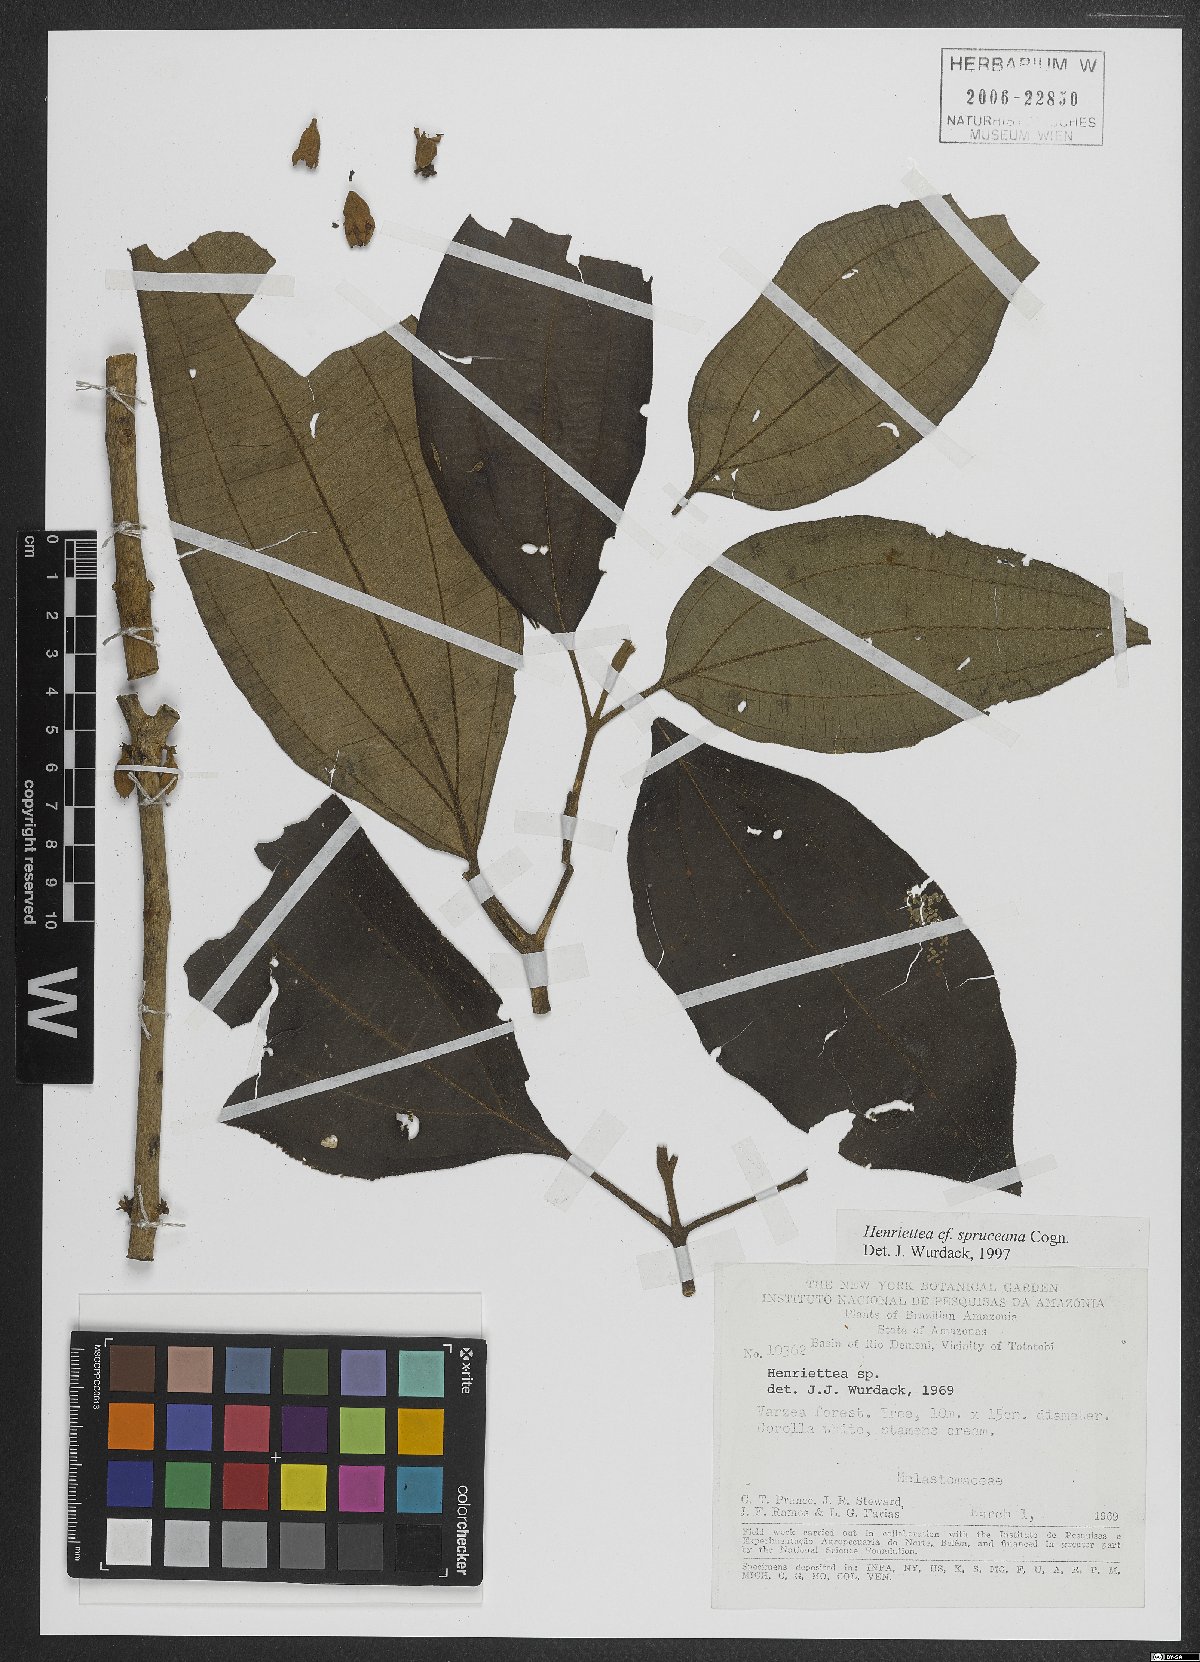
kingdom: Plantae
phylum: Tracheophyta
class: Magnoliopsida
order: Myrtales
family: Melastomataceae
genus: Henriettea
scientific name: Henriettea spruceana
